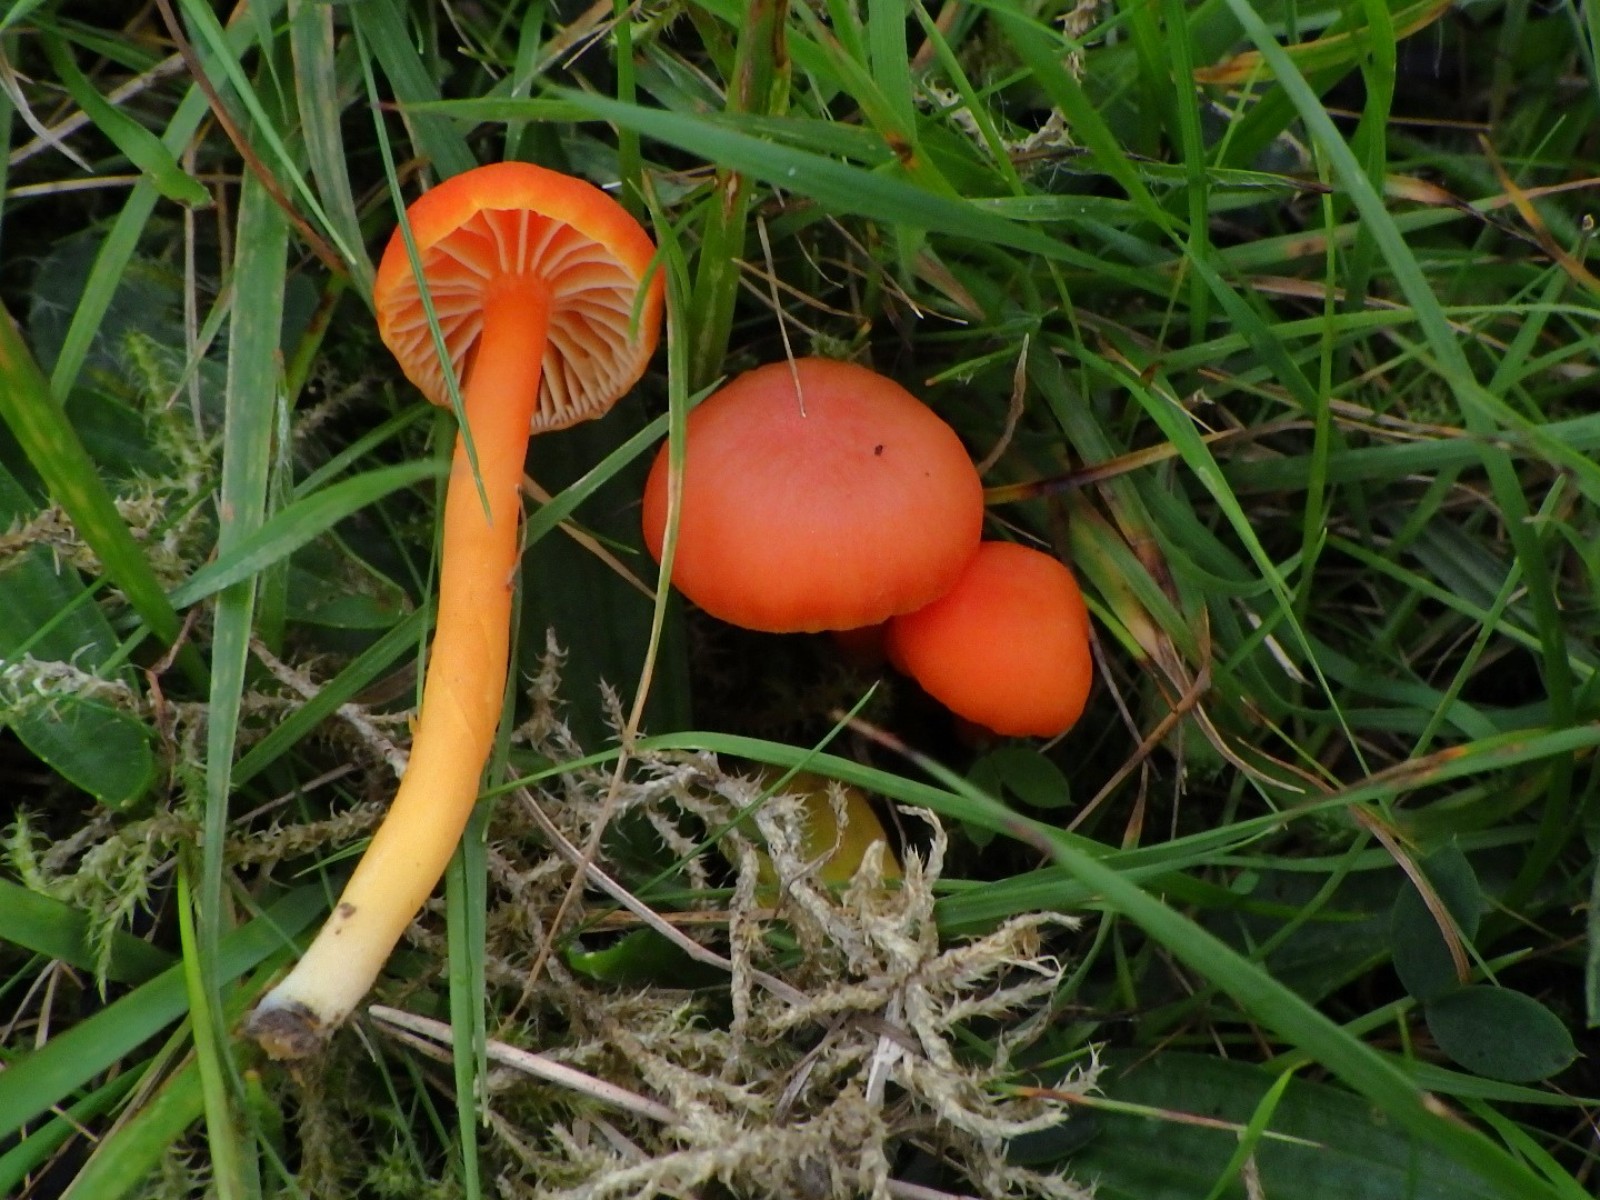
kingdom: Fungi
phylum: Basidiomycota
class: Agaricomycetes
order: Agaricales
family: Hygrophoraceae
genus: Hygrocybe
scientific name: Hygrocybe miniata
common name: mønje-vokshat
